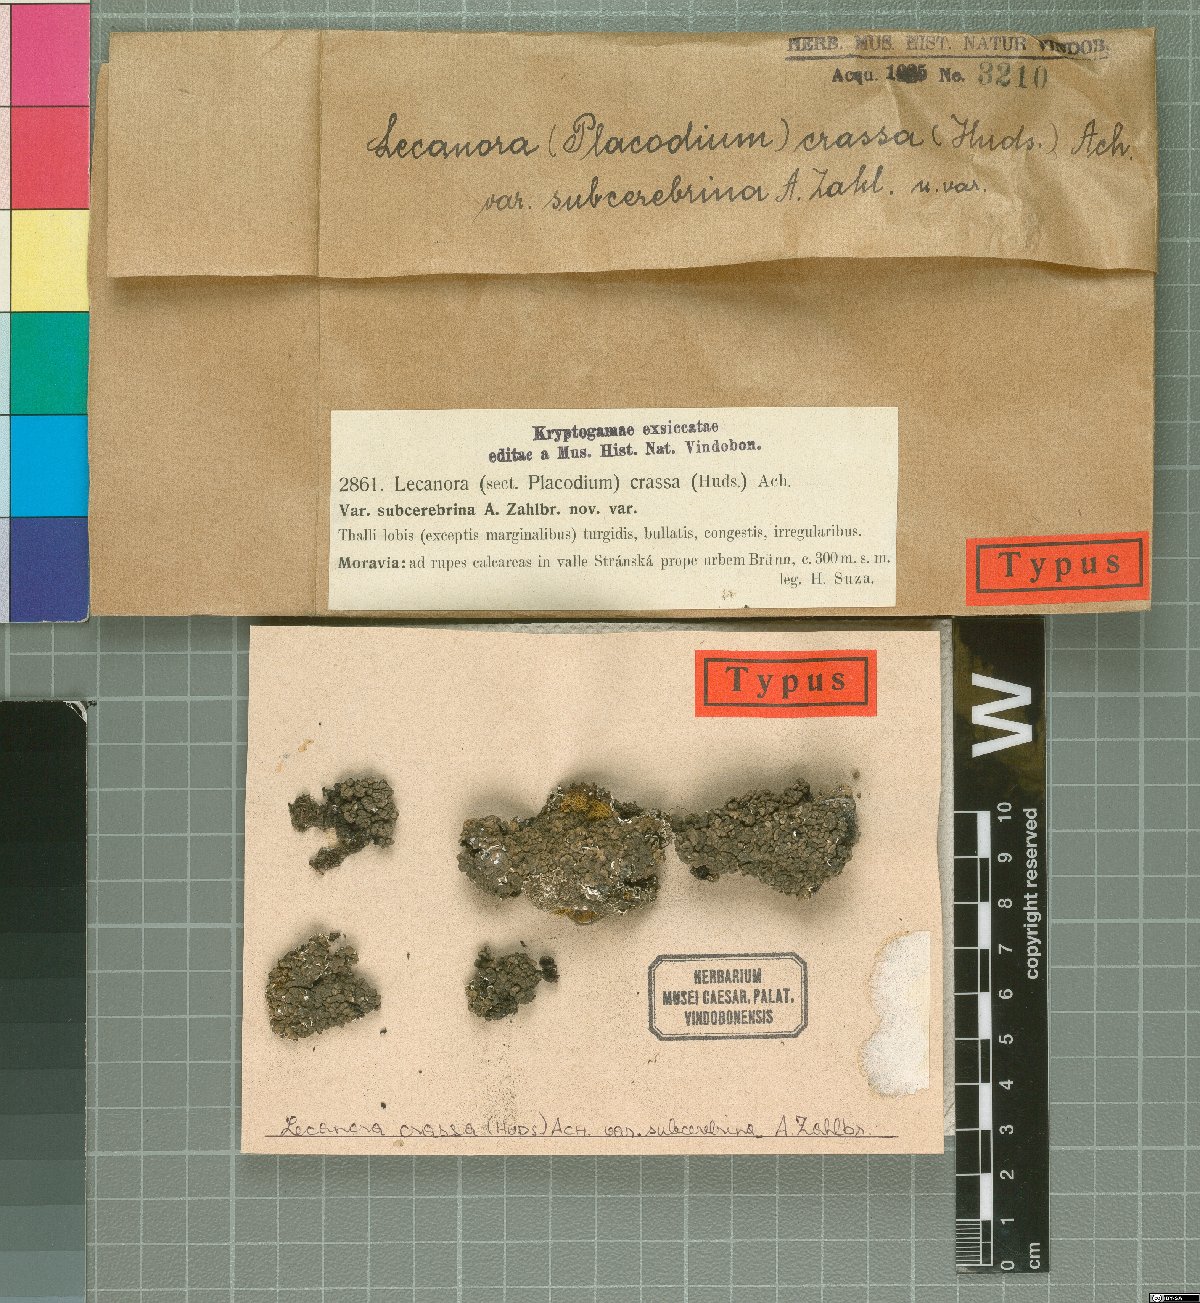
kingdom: Fungi
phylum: Ascomycota
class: Lecanoromycetes
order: Lecanorales
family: Lecanoraceae
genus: Lecanora
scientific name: Lecanora chlarotera
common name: Brown rim-lichen
